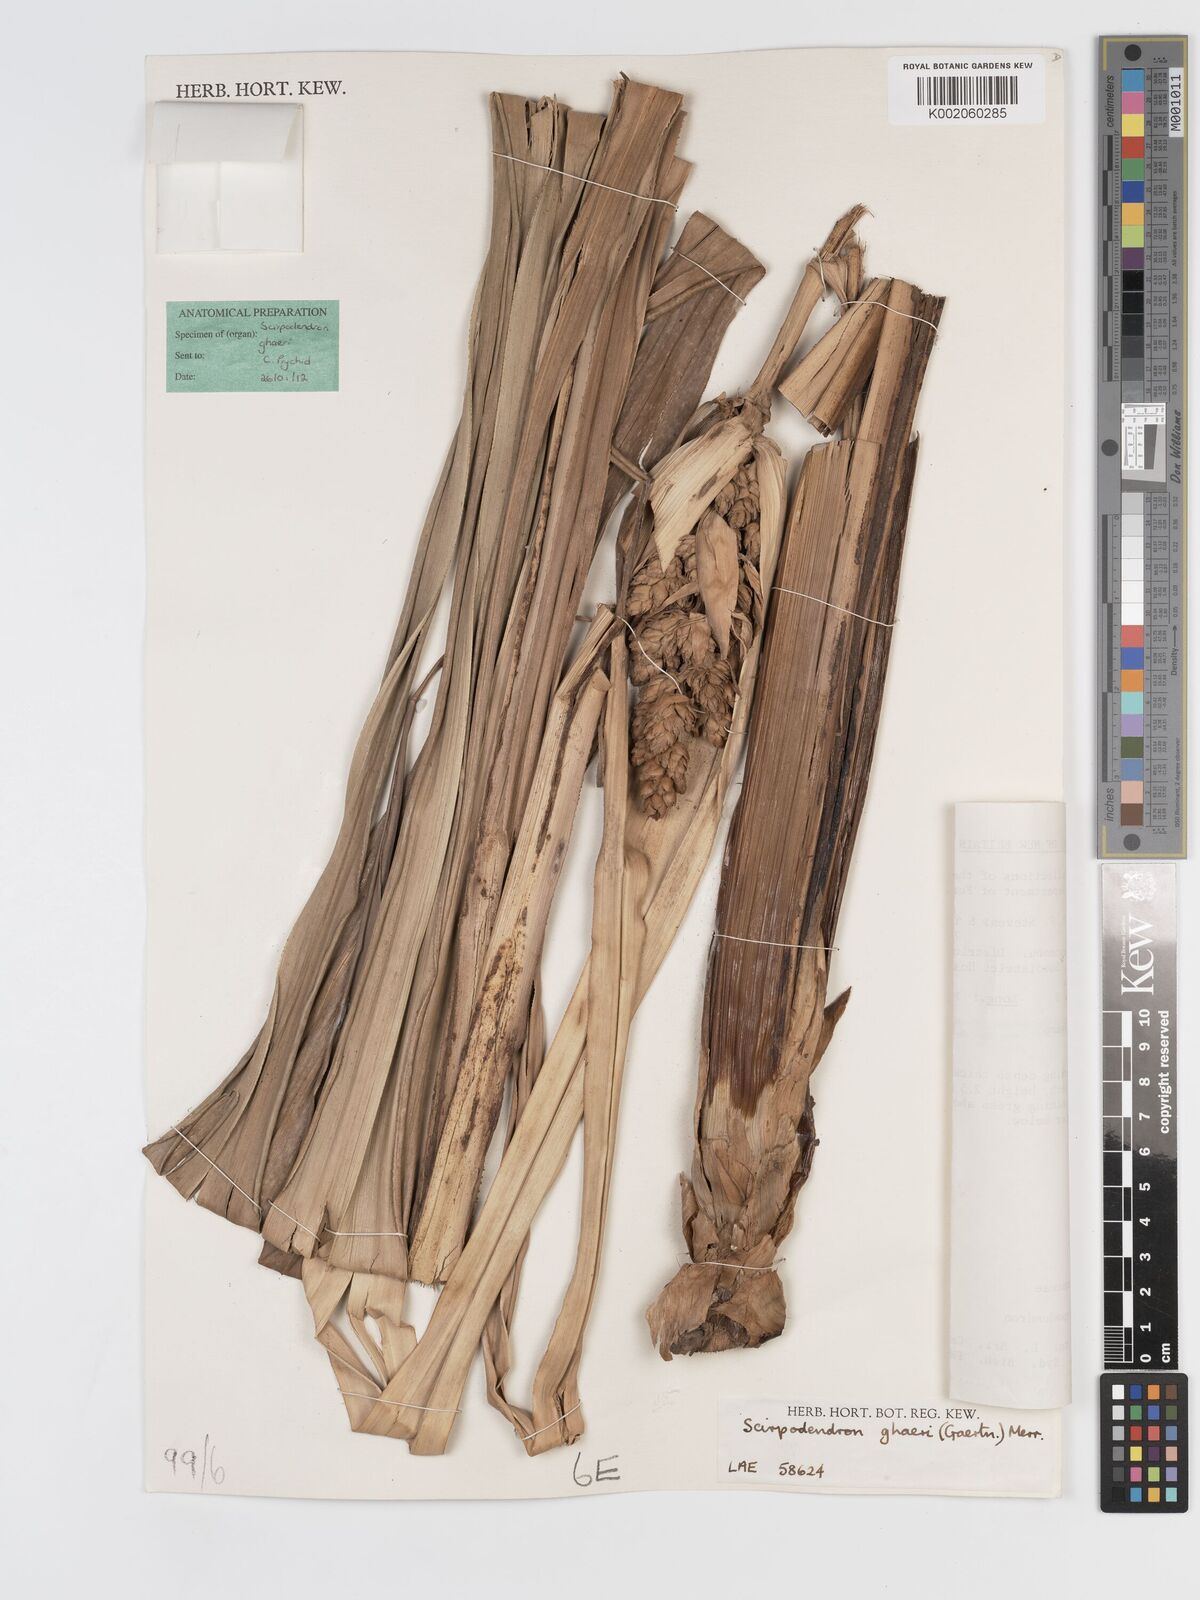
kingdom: Plantae
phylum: Tracheophyta
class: Liliopsida
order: Poales
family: Cyperaceae
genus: Scirpodendron
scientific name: Scirpodendron ghaeri
